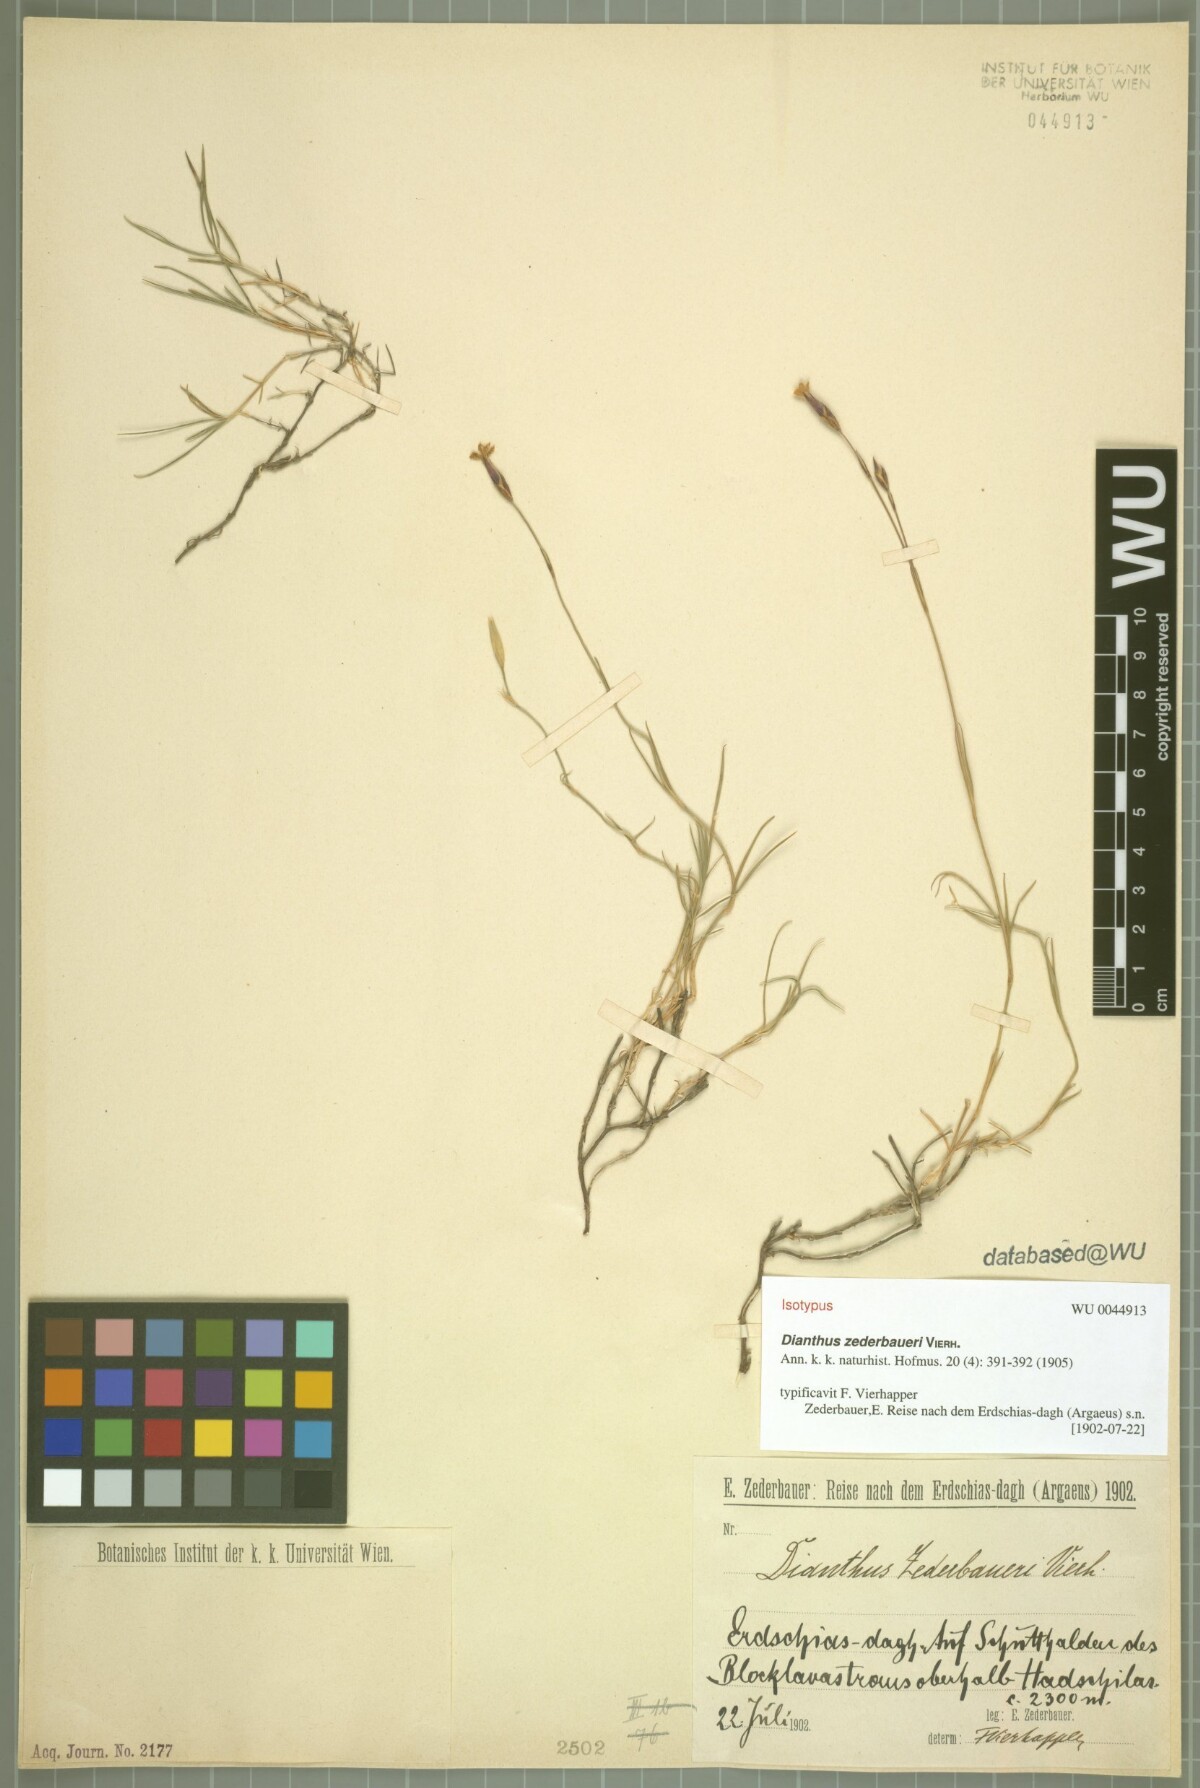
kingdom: Plantae
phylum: Tracheophyta
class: Magnoliopsida
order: Caryophyllales
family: Caryophyllaceae
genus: Dianthus
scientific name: Dianthus zederbaueri
